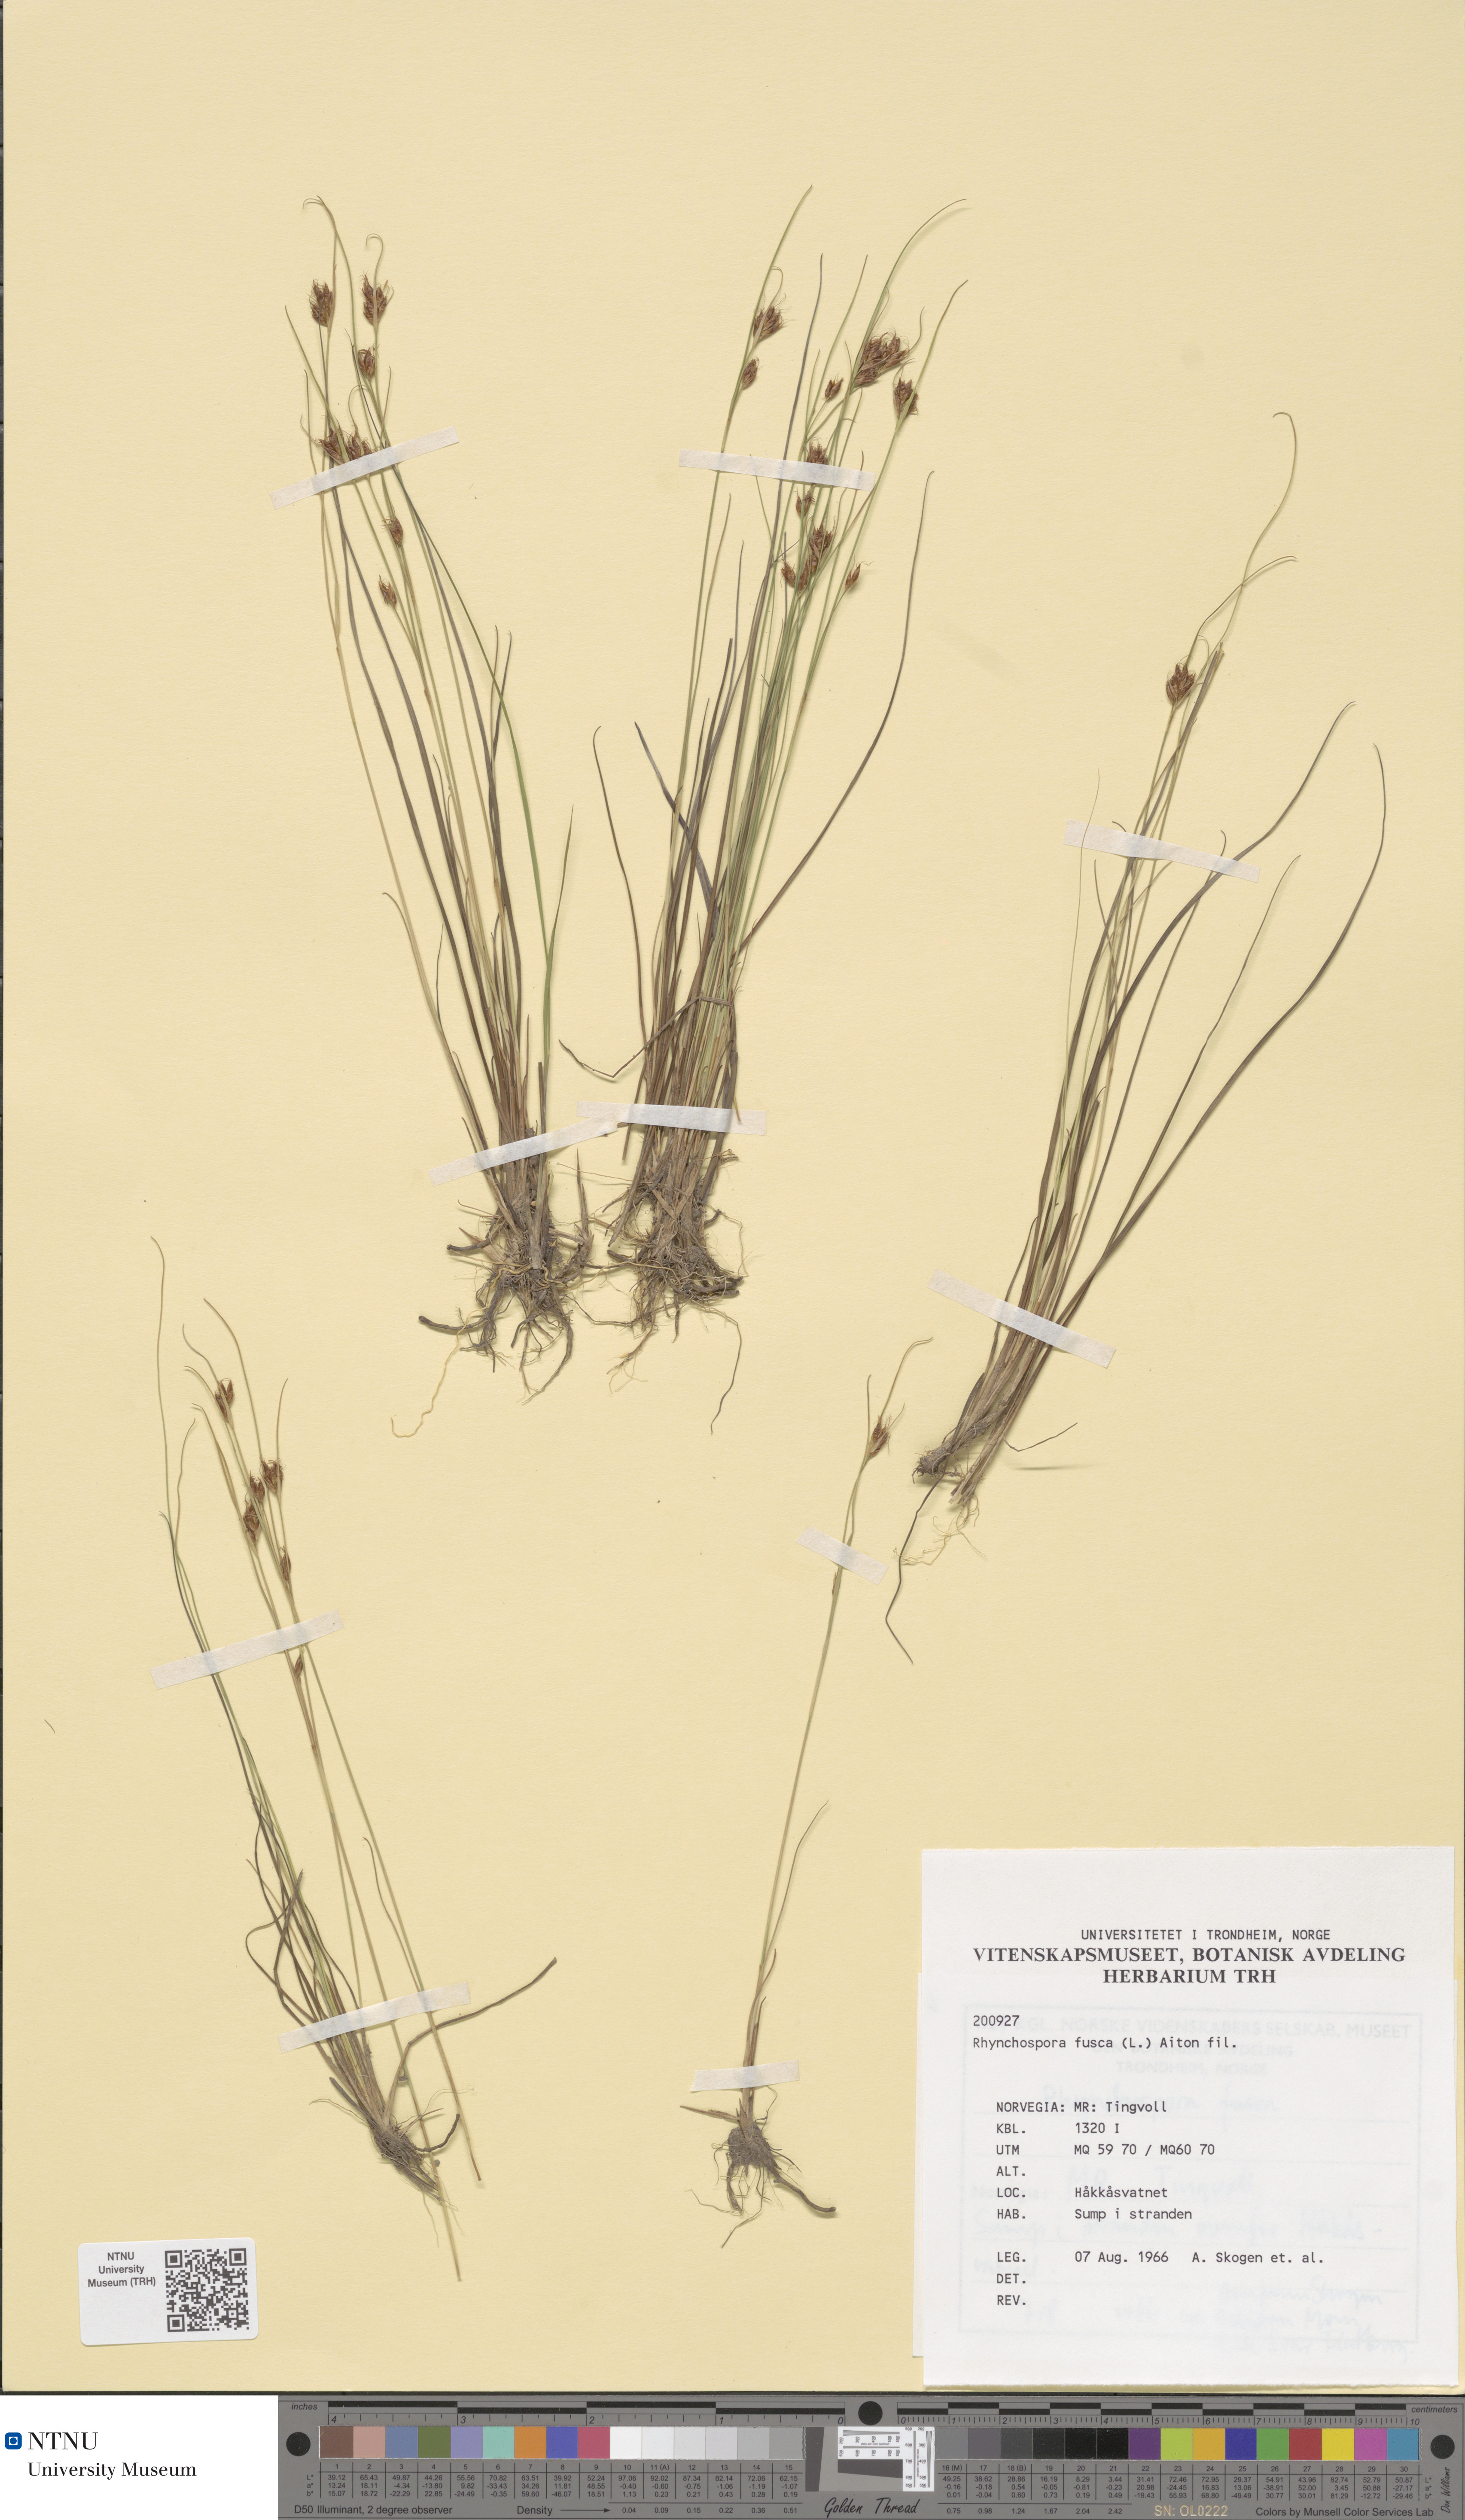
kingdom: Plantae
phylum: Tracheophyta
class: Liliopsida
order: Poales
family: Cyperaceae
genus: Rhynchospora
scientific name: Rhynchospora fusca
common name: Brown beak-sedge
